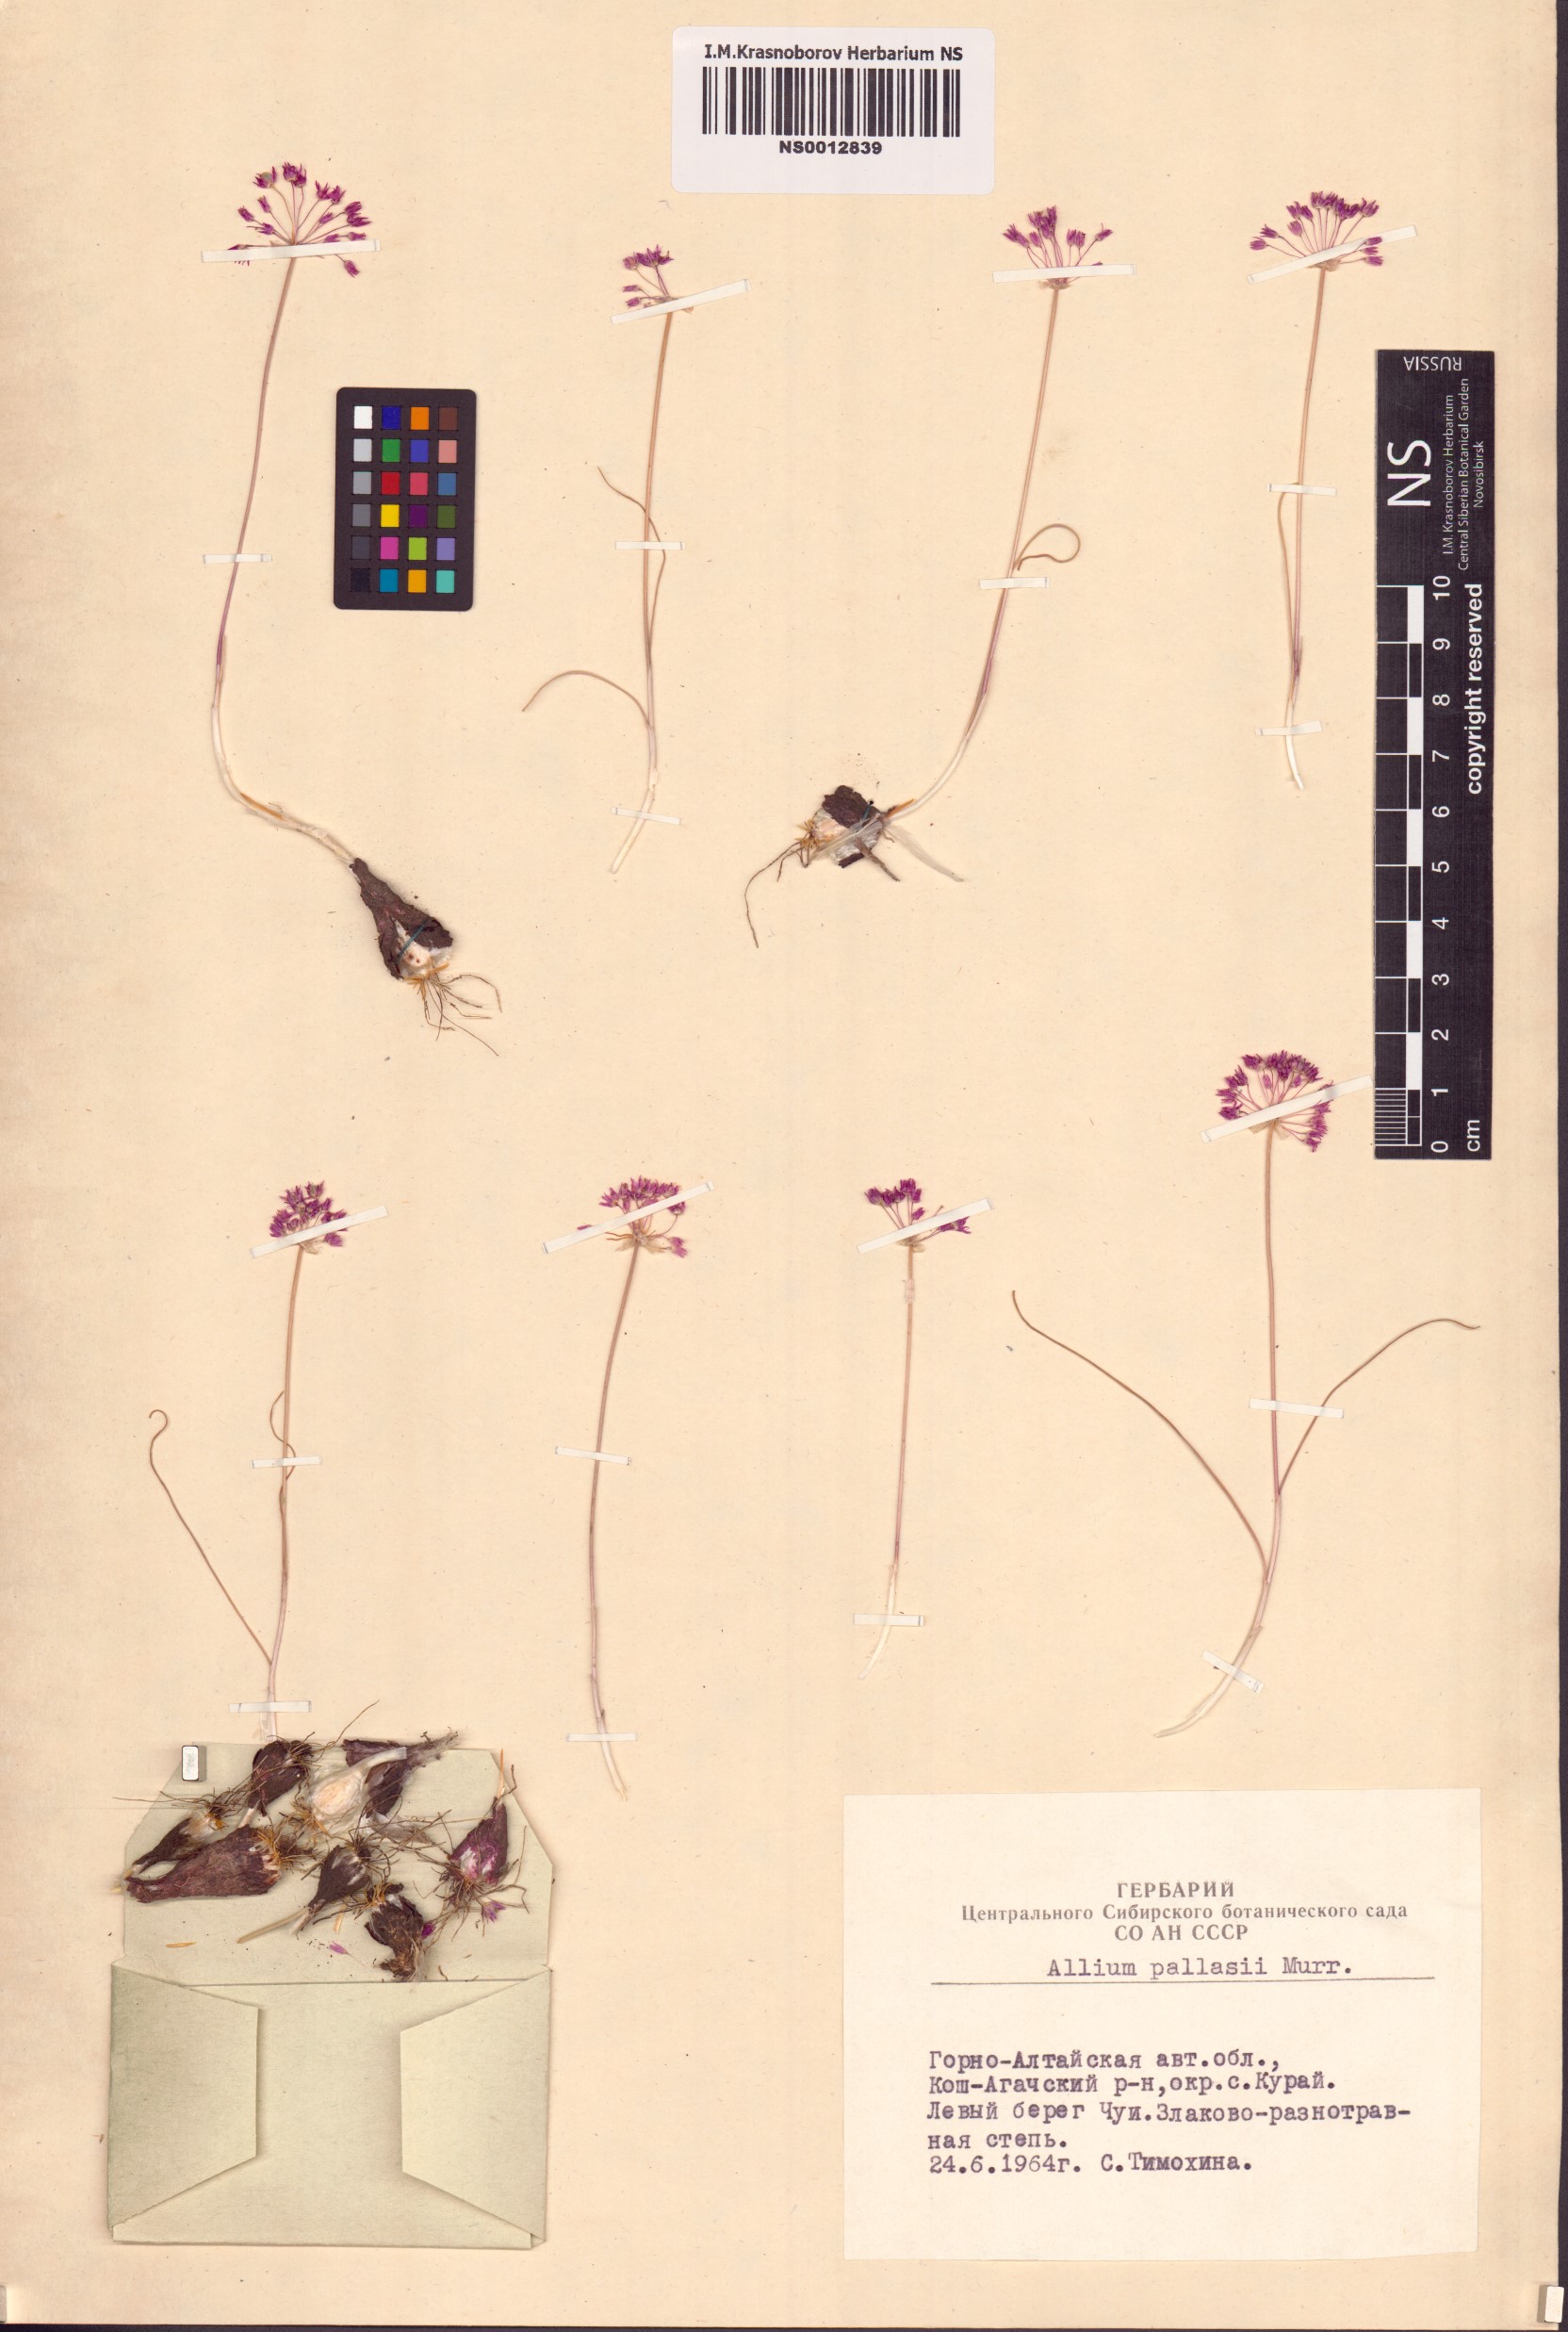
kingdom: Plantae
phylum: Tracheophyta
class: Liliopsida
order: Asparagales
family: Amaryllidaceae
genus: Allium
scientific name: Allium pallasii
